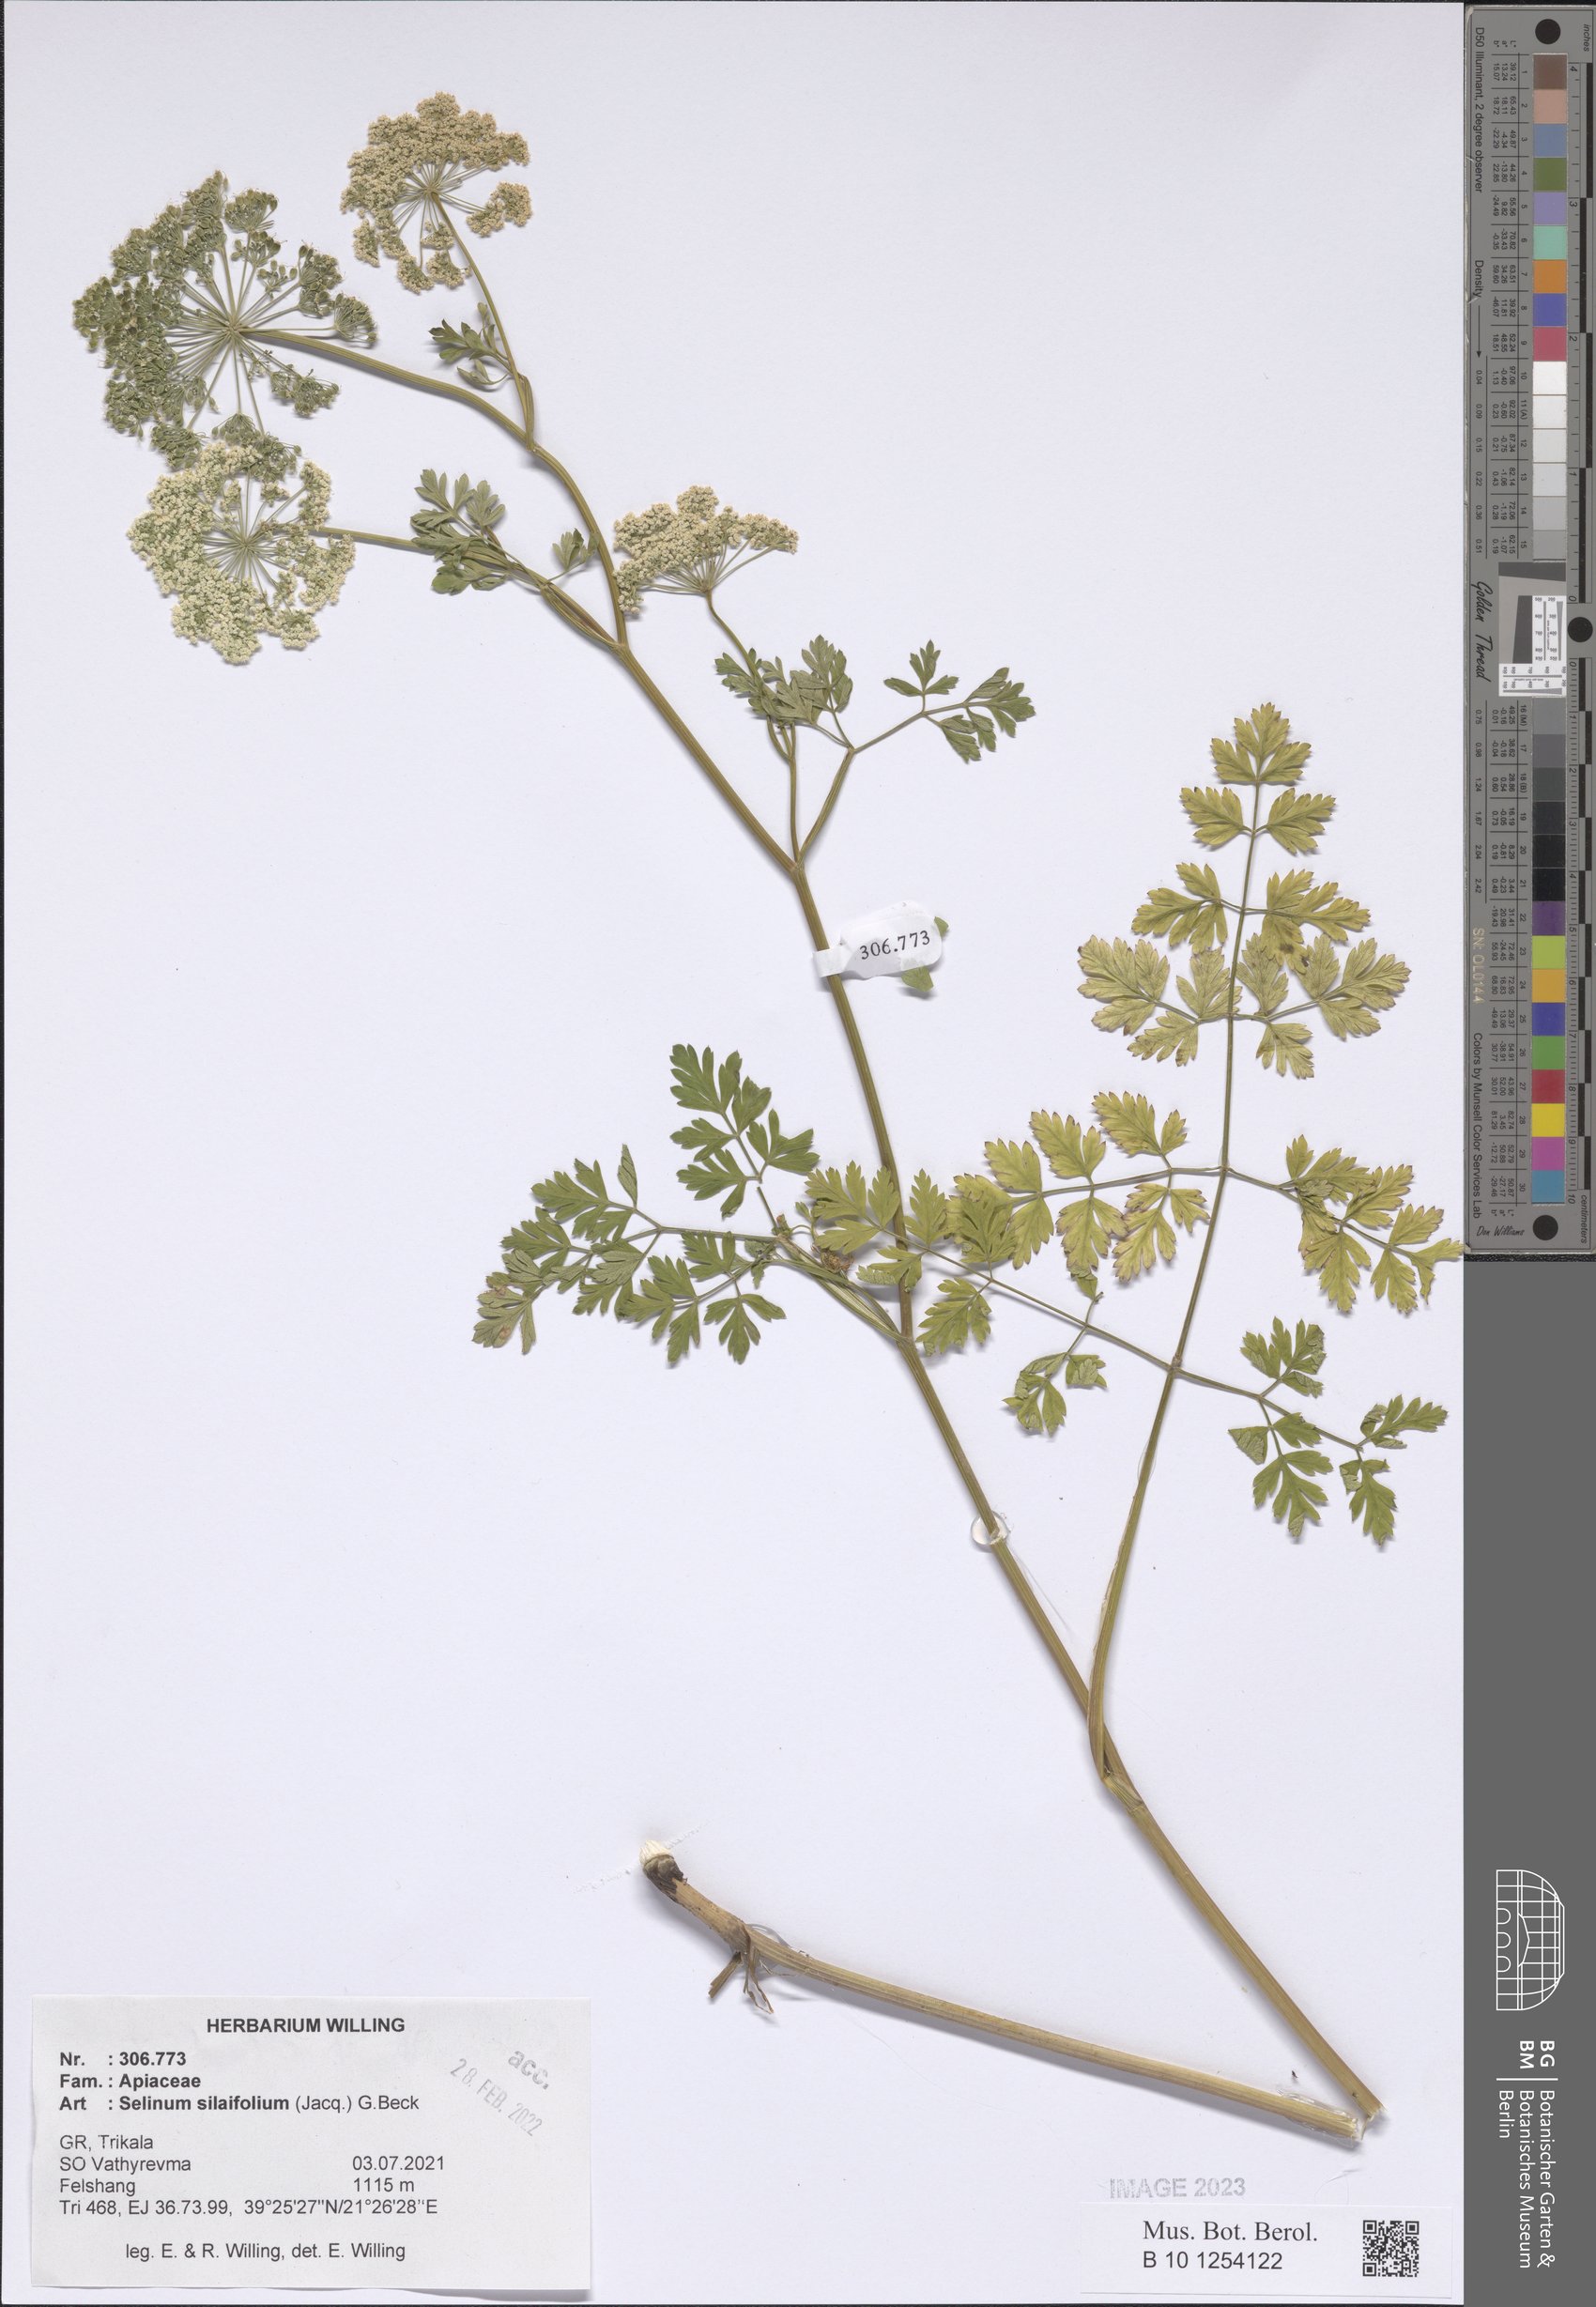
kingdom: Plantae
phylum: Tracheophyta
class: Magnoliopsida
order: Apiales
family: Apiaceae
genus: Katapsuxis
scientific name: Katapsuxis silaifolia
